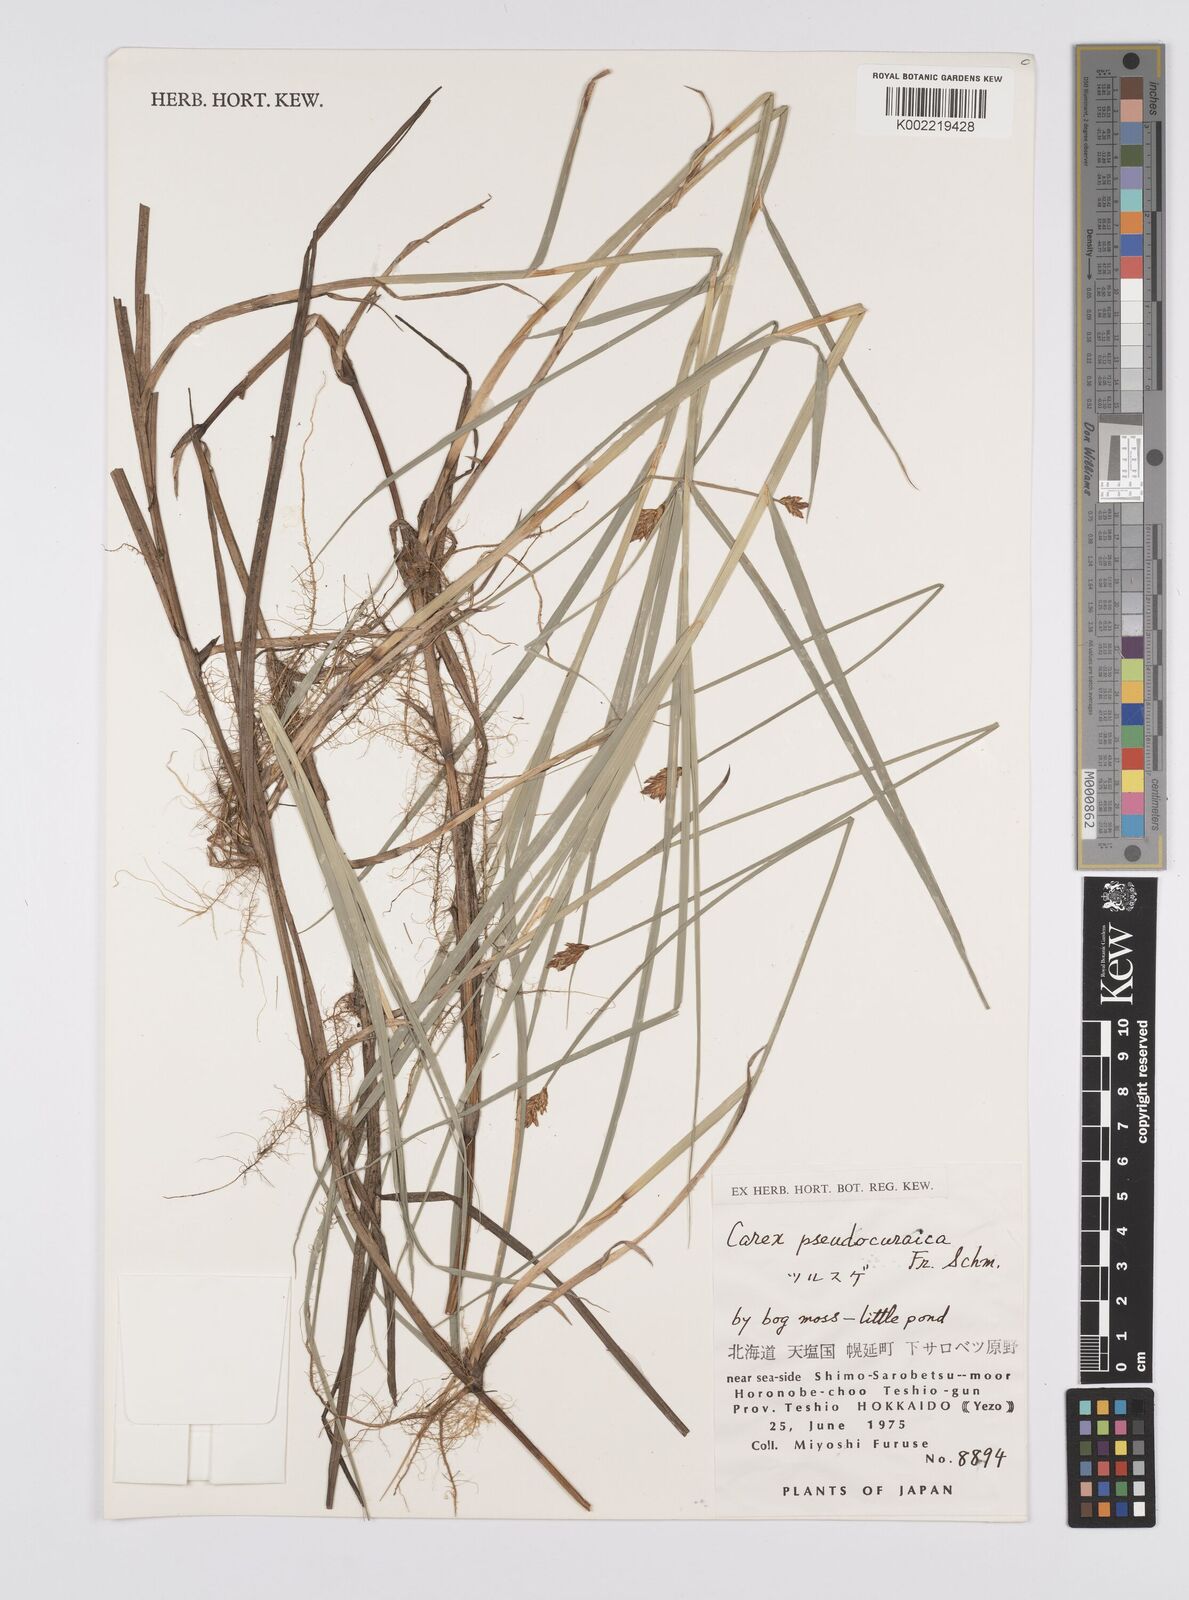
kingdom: Plantae
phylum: Tracheophyta
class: Liliopsida
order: Poales
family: Cyperaceae
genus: Carex
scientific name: Carex pseudocuraica
